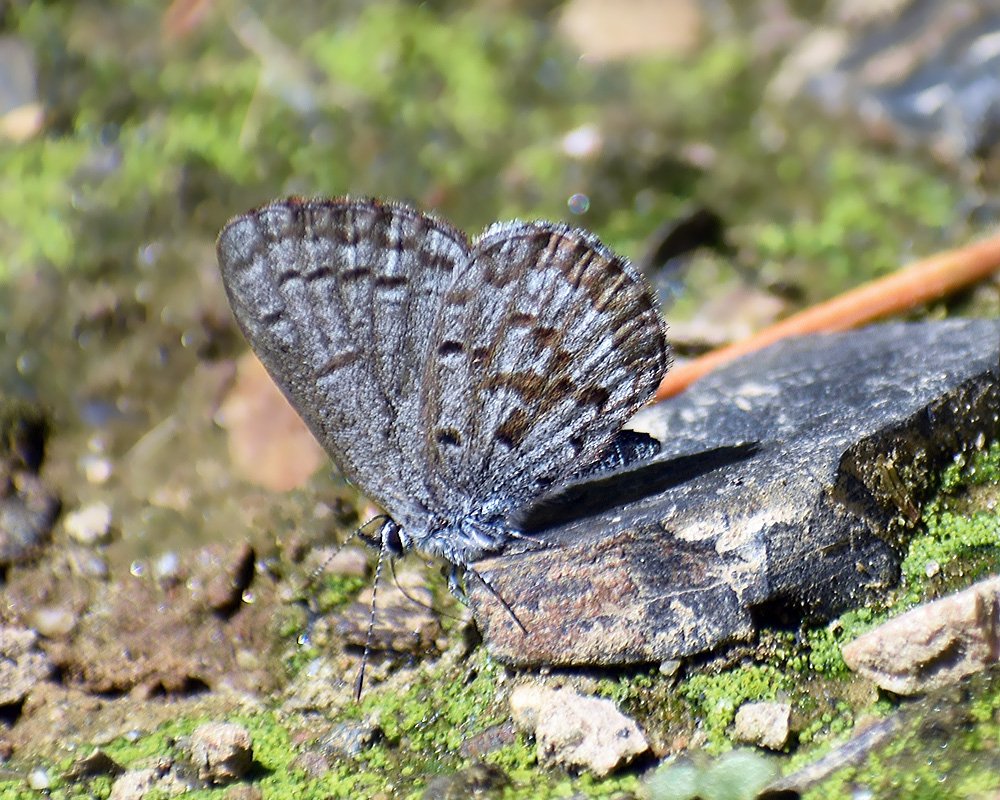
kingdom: Animalia
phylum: Arthropoda
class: Insecta
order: Lepidoptera
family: Lycaenidae
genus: Celastrina
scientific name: Celastrina ladon
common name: Echo Azure
